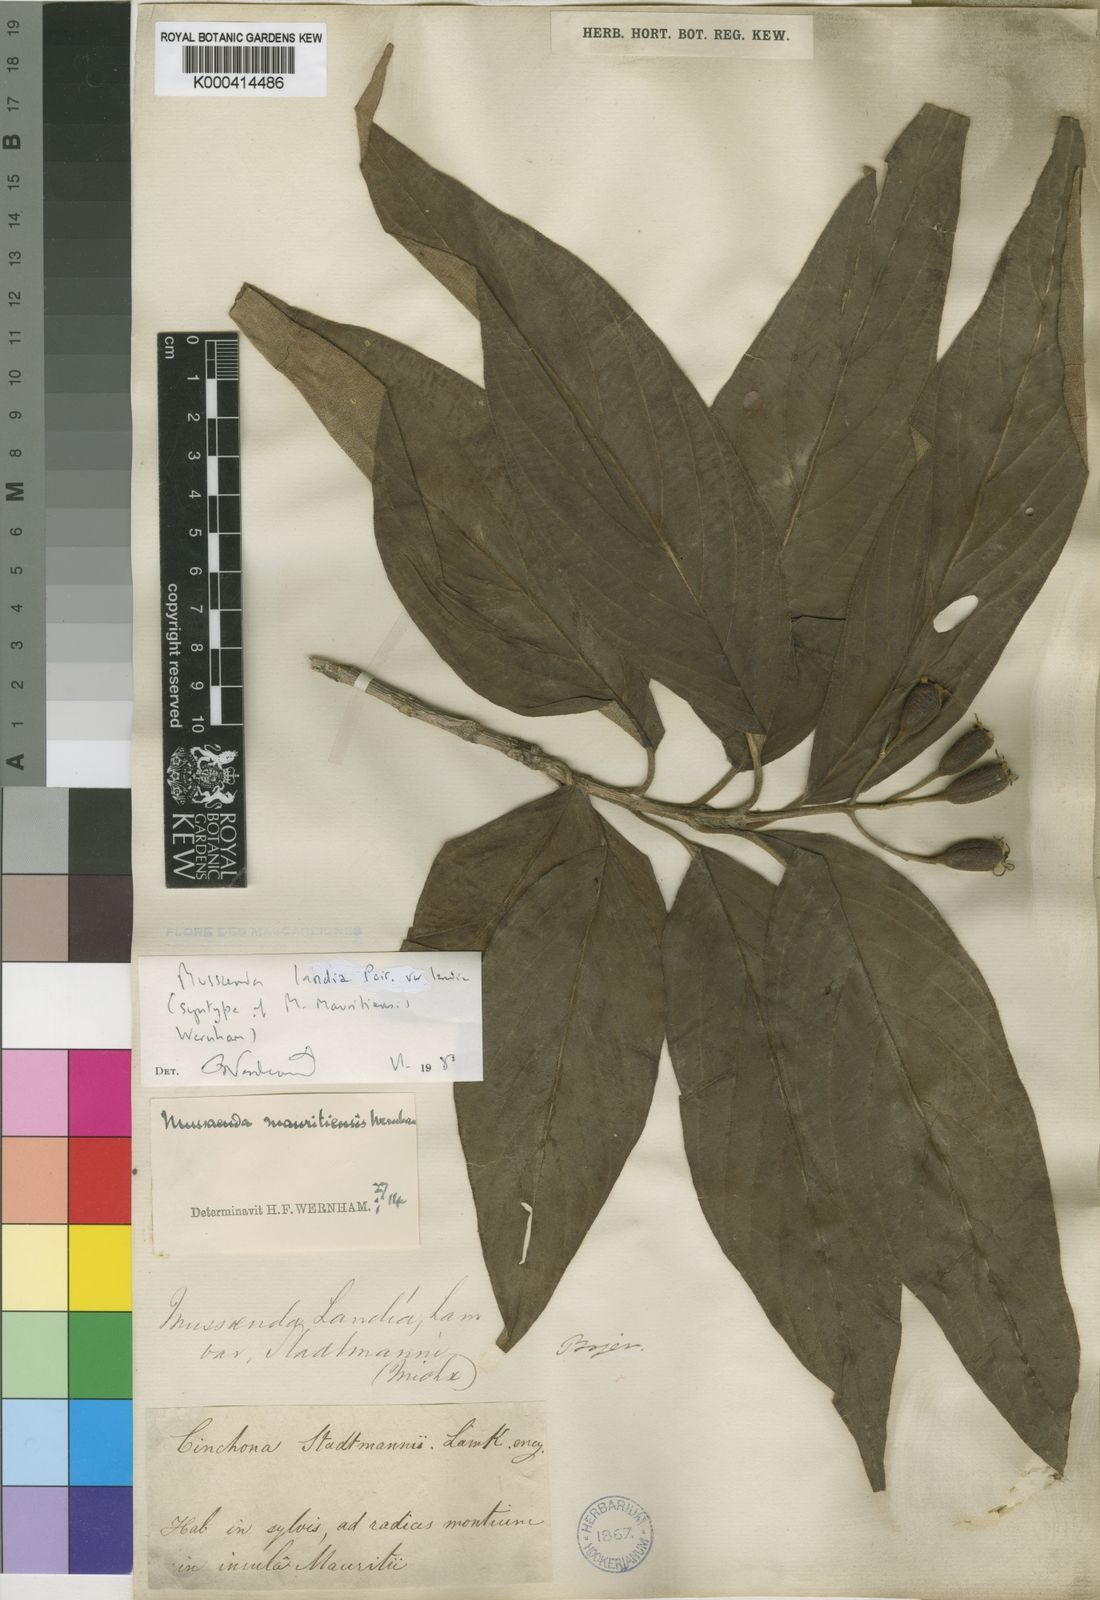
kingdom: Plantae
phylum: Tracheophyta
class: Magnoliopsida
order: Gentianales
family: Rubiaceae
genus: Bremeria
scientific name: Bremeria landia
